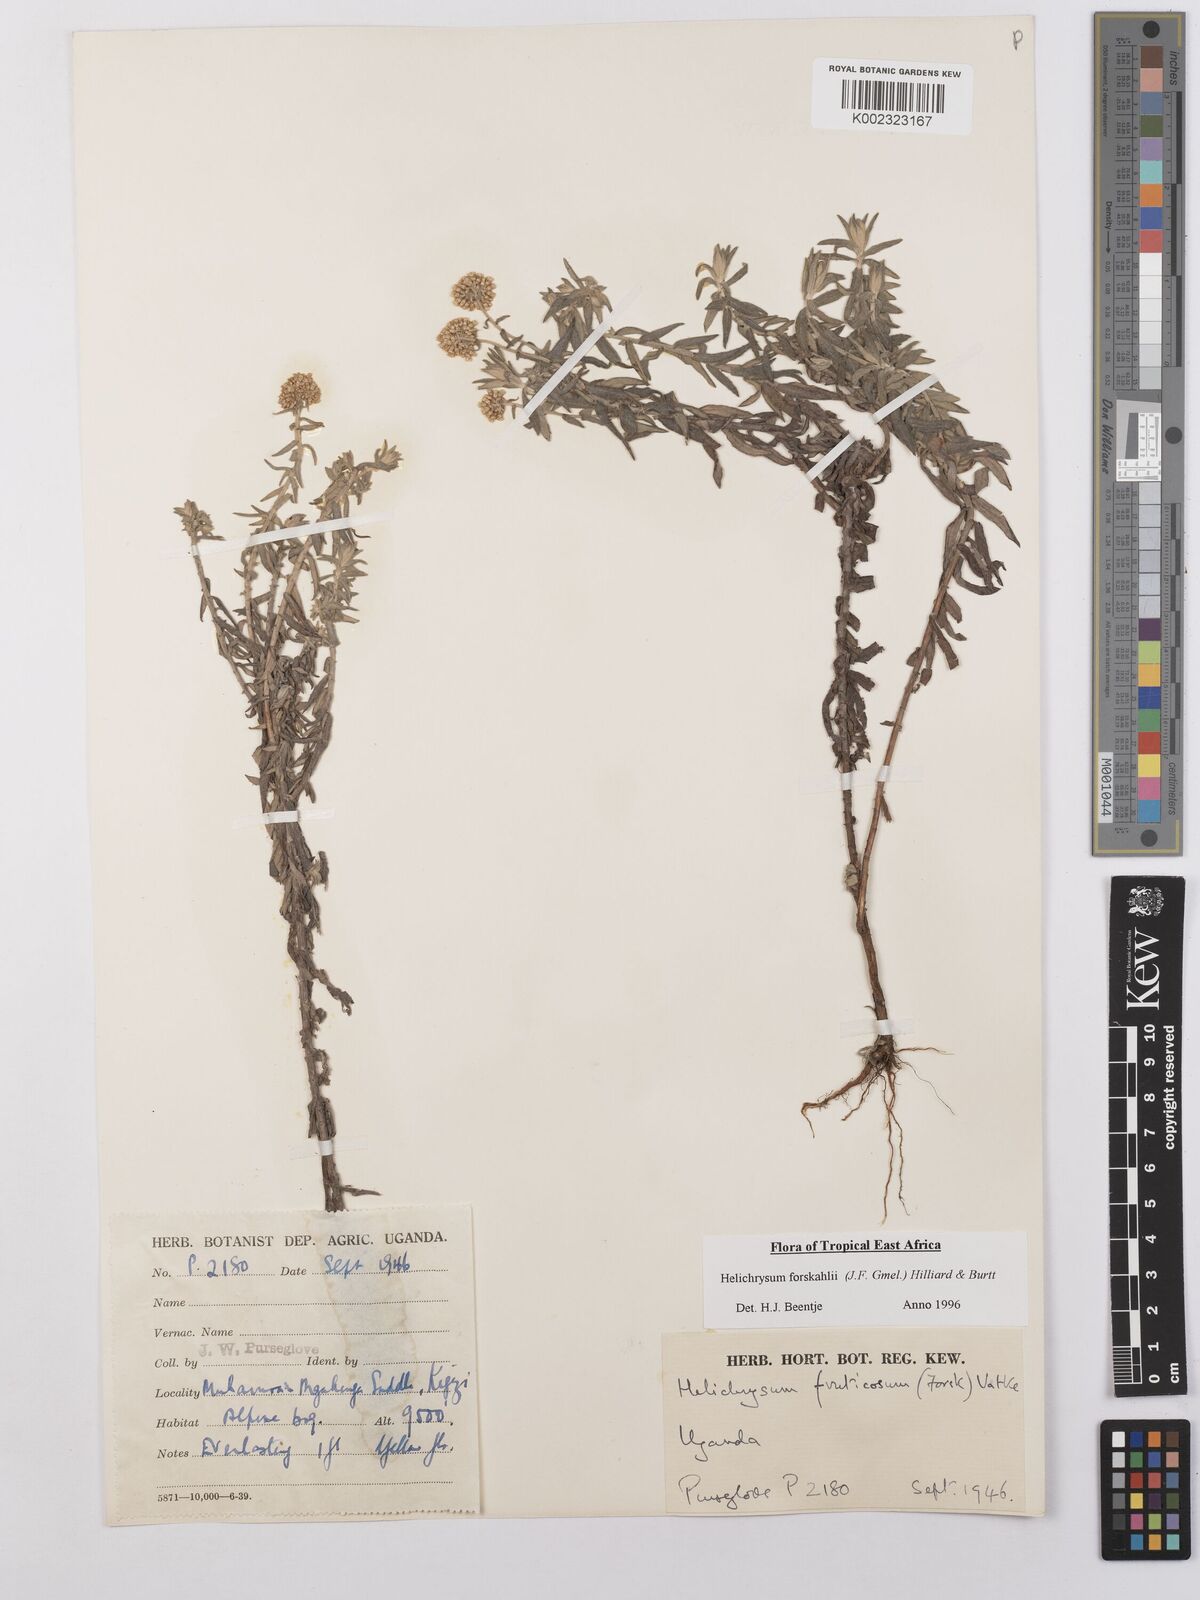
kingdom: Plantae
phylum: Tracheophyta
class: Magnoliopsida
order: Asterales
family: Asteraceae
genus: Helichrysum
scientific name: Helichrysum forskahlii
